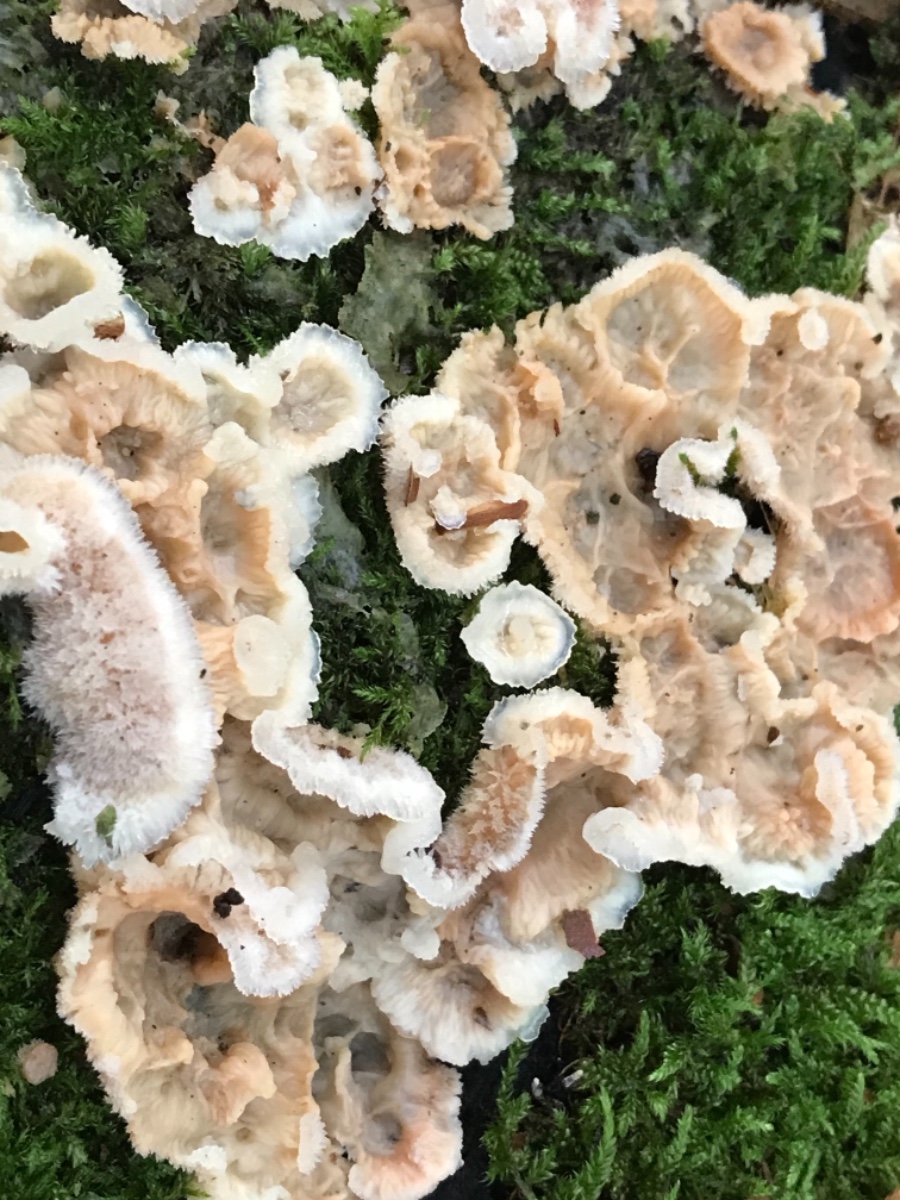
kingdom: Fungi
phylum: Basidiomycota
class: Agaricomycetes
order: Polyporales
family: Meruliaceae
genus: Phlebia
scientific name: Phlebia tremellosa
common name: bævrende åresvamp
